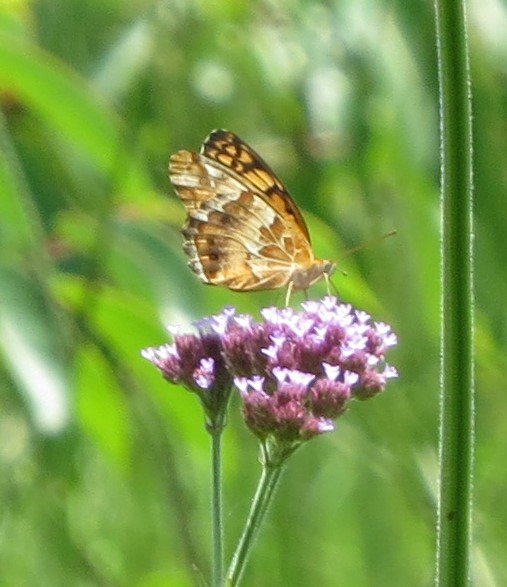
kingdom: Animalia
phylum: Arthropoda
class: Insecta
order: Lepidoptera
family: Nymphalidae
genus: Euptoieta
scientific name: Euptoieta claudia
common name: Variegated Fritillary
